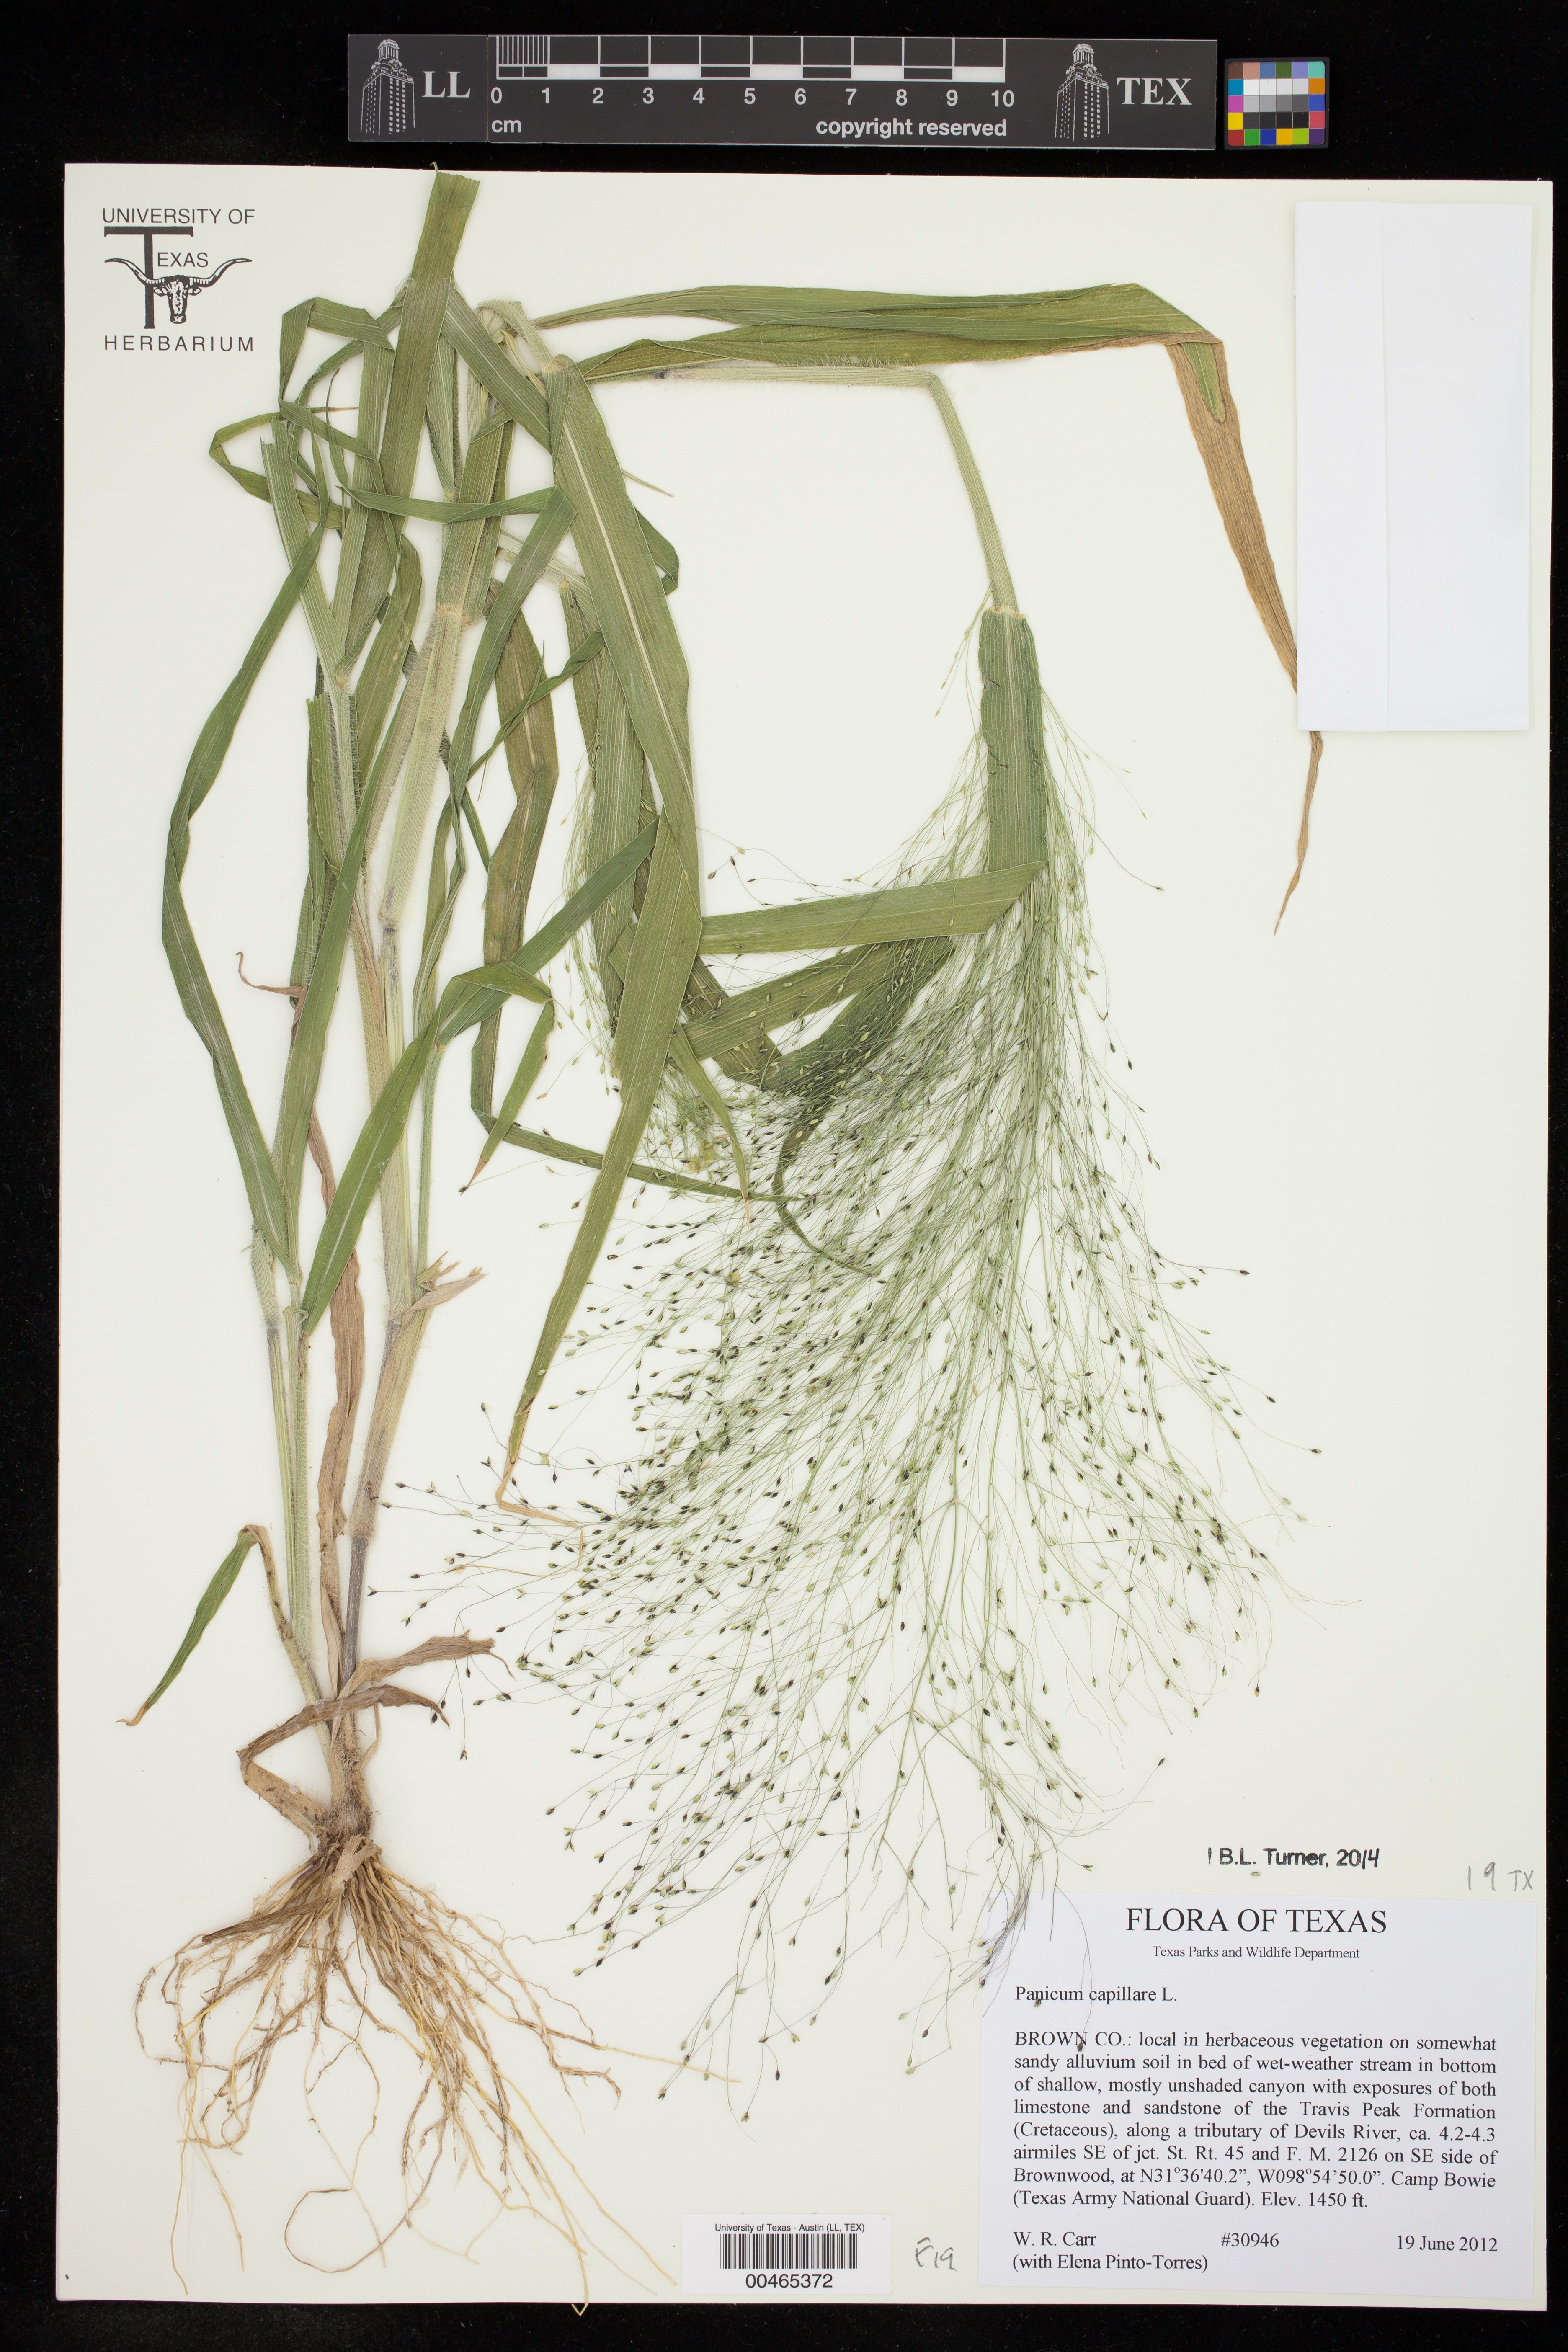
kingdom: Plantae
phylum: Tracheophyta
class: Liliopsida
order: Poales
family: Poaceae
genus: Panicum
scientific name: Panicum capillare
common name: Witch-grass
